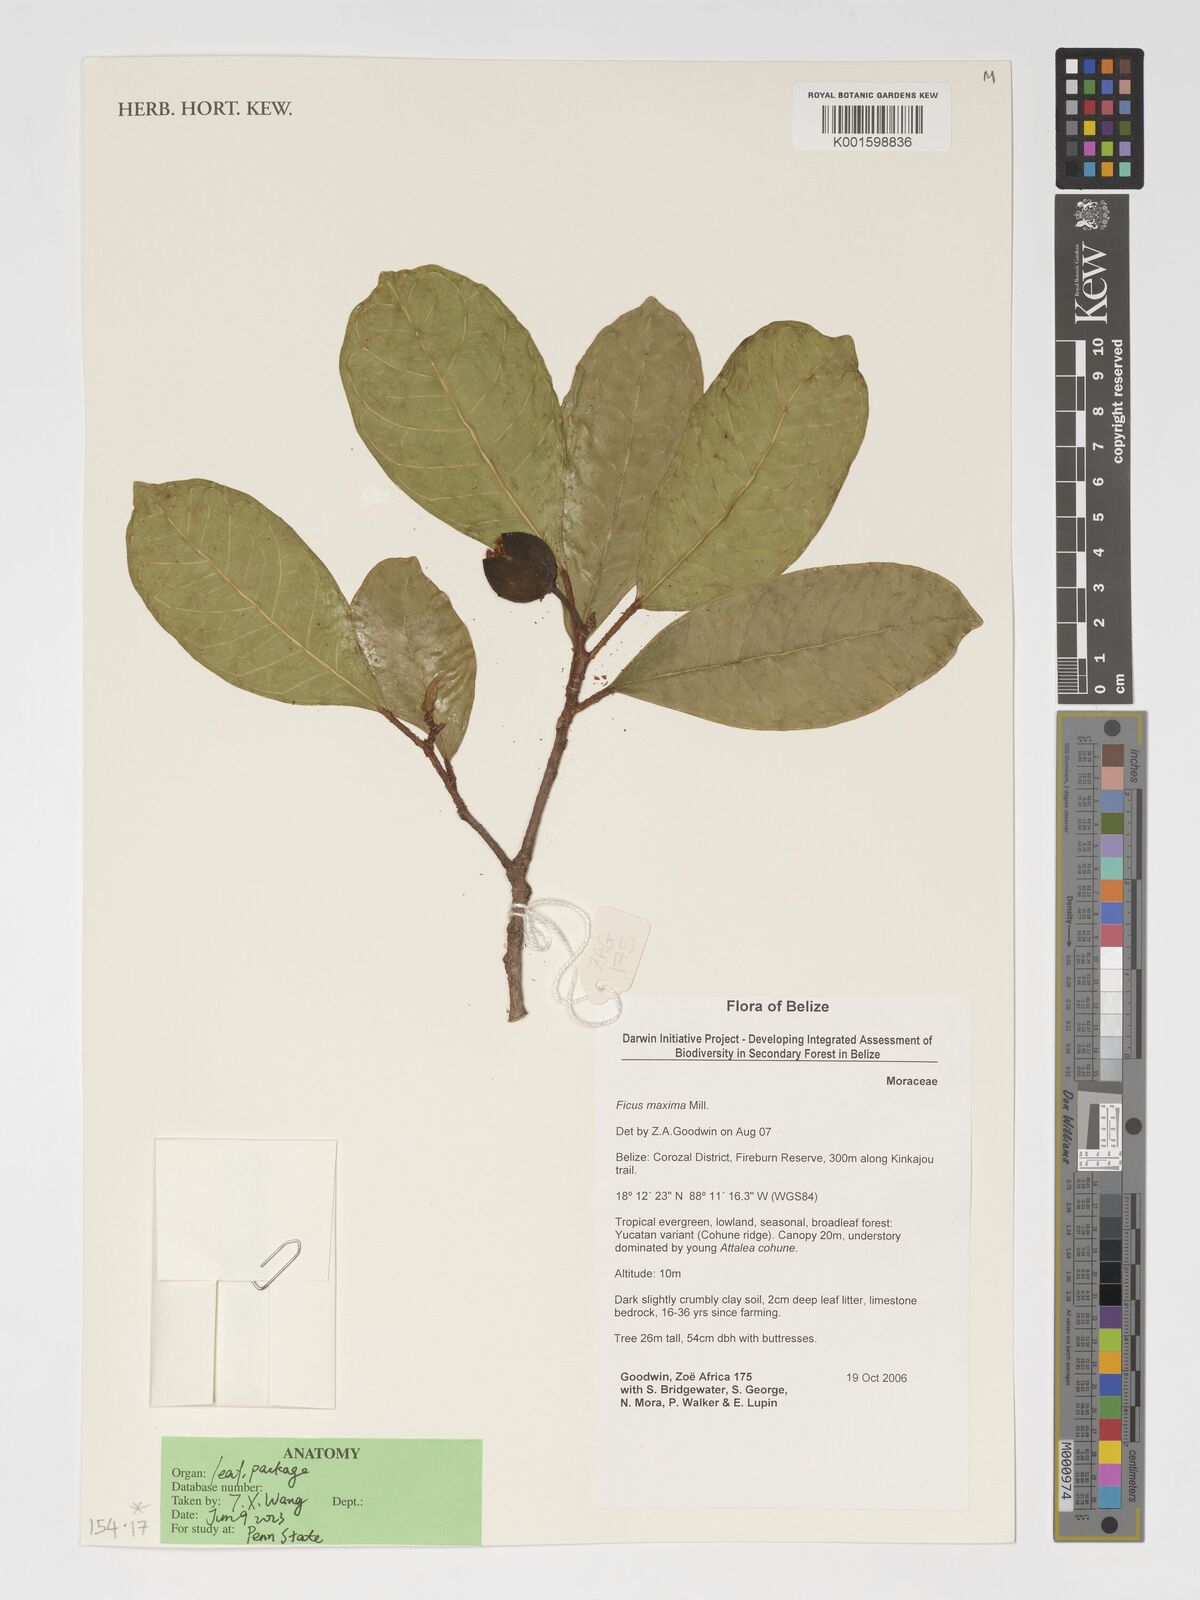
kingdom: Plantae
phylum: Tracheophyta
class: Magnoliopsida
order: Rosales
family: Moraceae
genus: Ficus
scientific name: Ficus maxima
